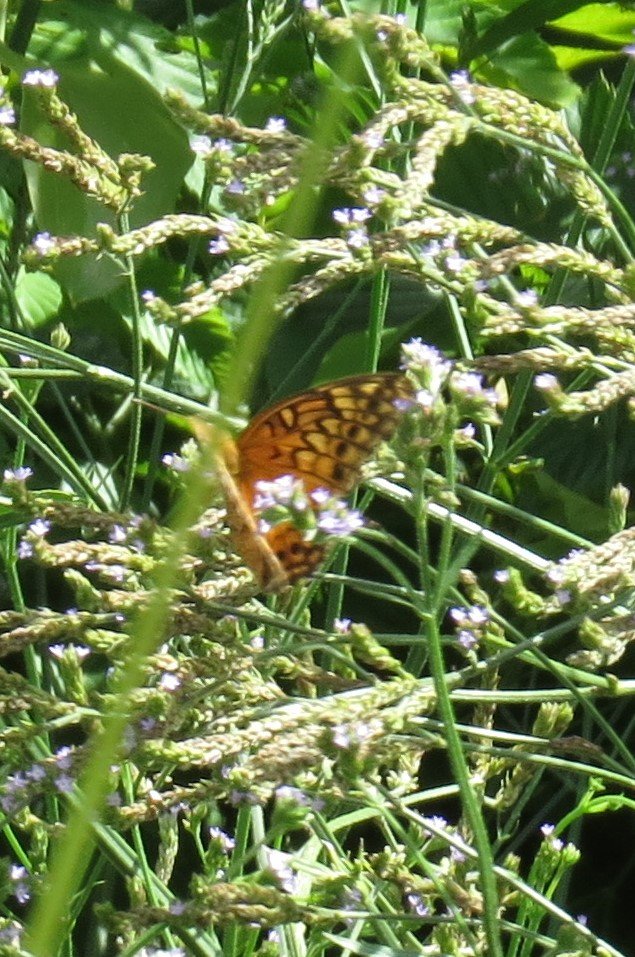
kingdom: Animalia
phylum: Arthropoda
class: Insecta
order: Lepidoptera
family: Nymphalidae
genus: Euptoieta
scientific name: Euptoieta claudia
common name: Variegated Fritillary
